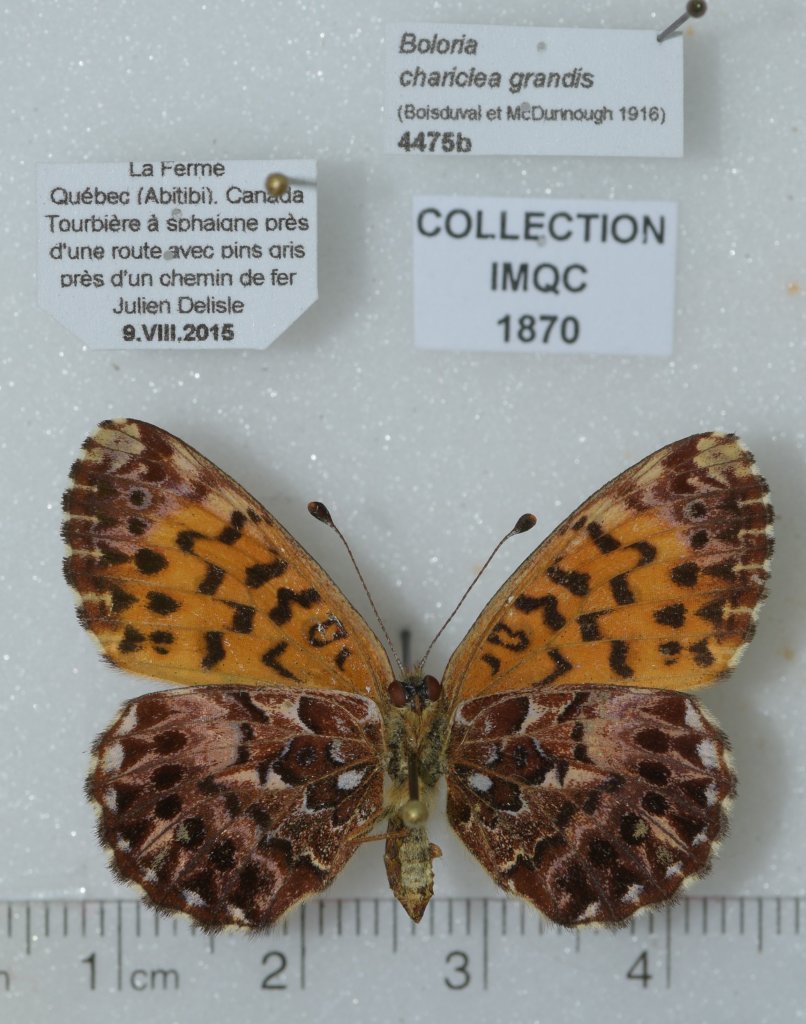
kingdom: Animalia
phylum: Arthropoda
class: Insecta
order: Lepidoptera
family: Nymphalidae
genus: Boloria
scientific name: Boloria chariclea
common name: Arctic Fritillary
